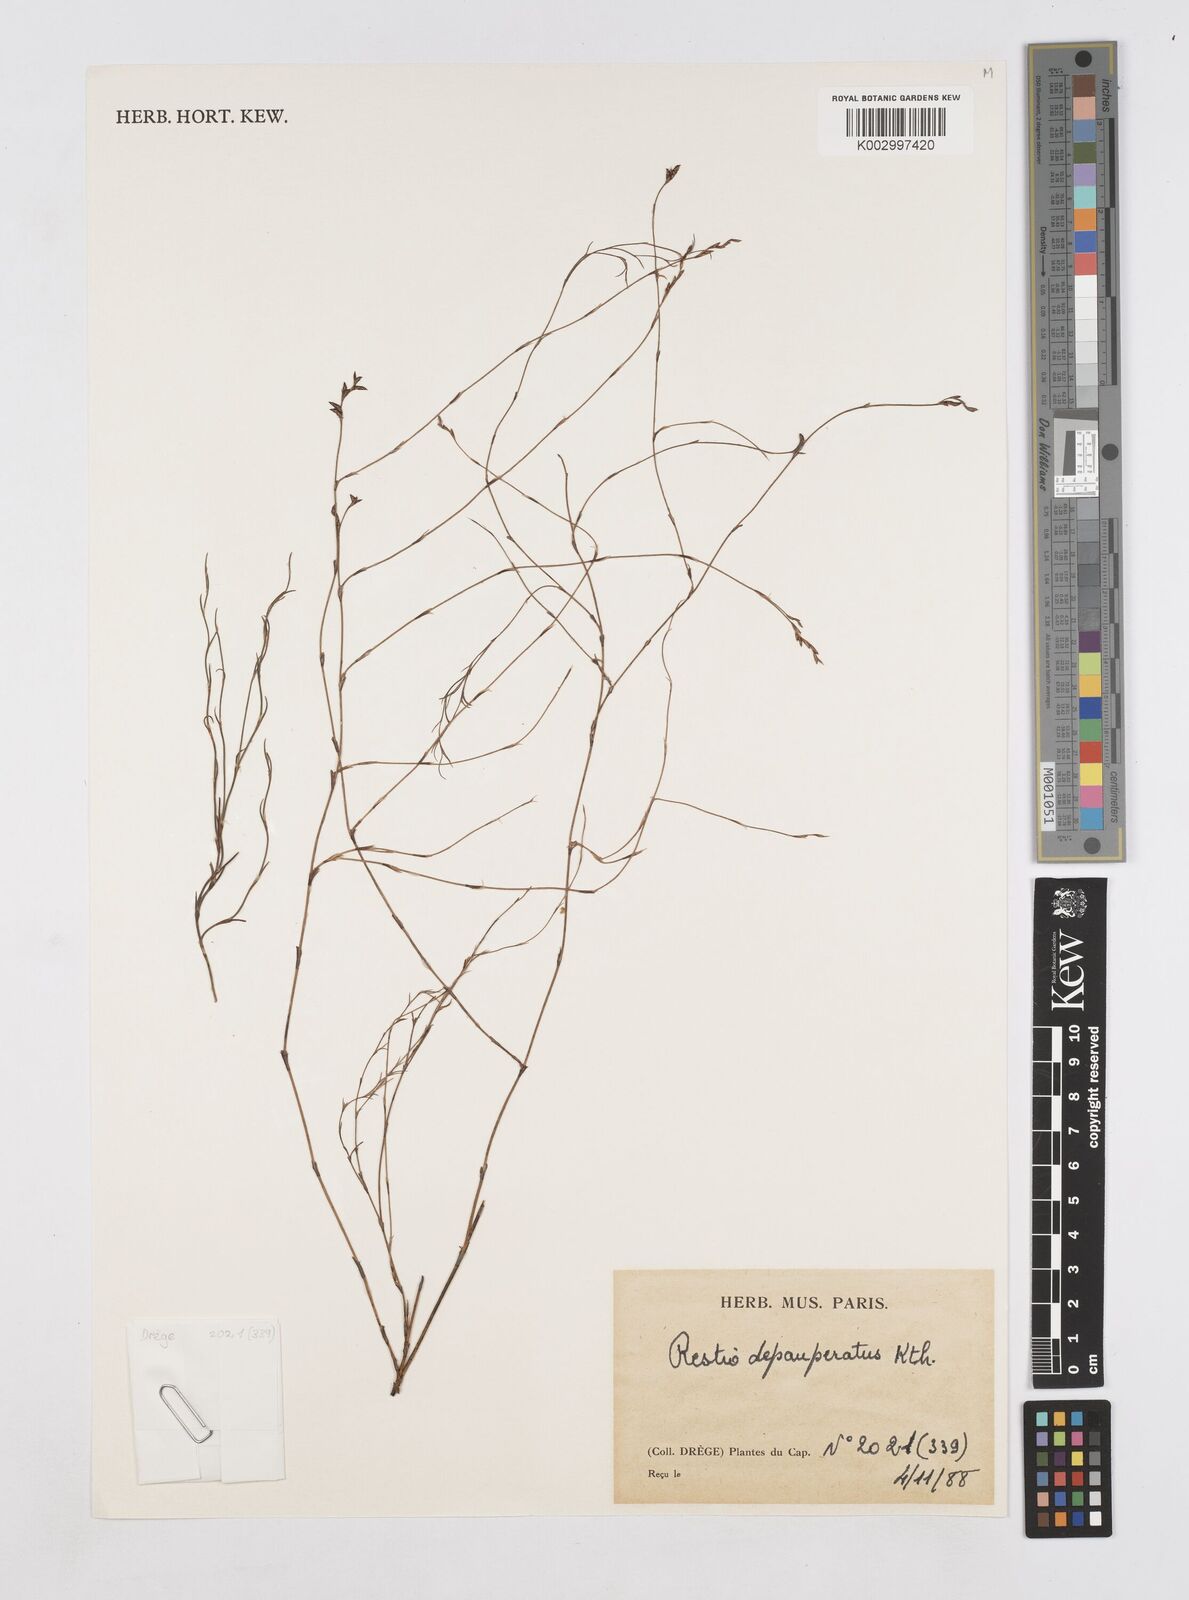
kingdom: Plantae
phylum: Tracheophyta
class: Liliopsida
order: Poales
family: Restionaceae
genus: Platycaulos
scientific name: Platycaulos depauperatus
